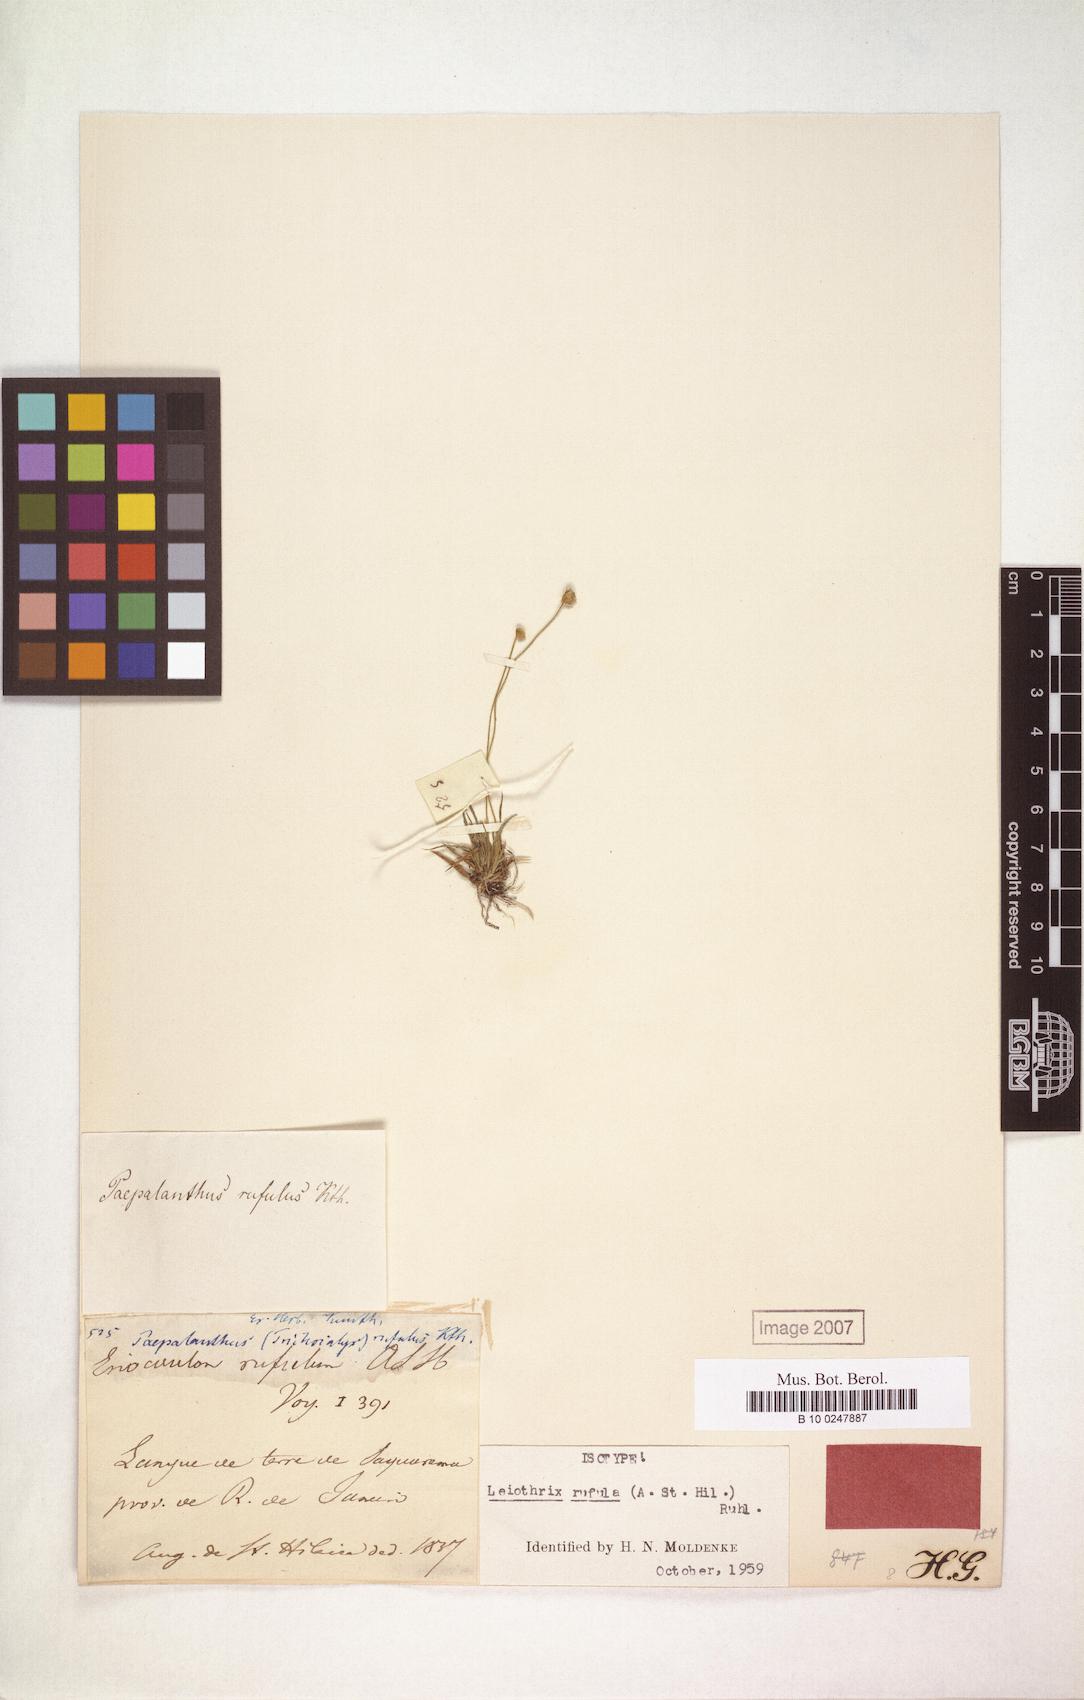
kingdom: Plantae
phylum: Tracheophyta
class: Liliopsida
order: Poales
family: Eriocaulaceae
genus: Leiothrix
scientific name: Leiothrix rufula
